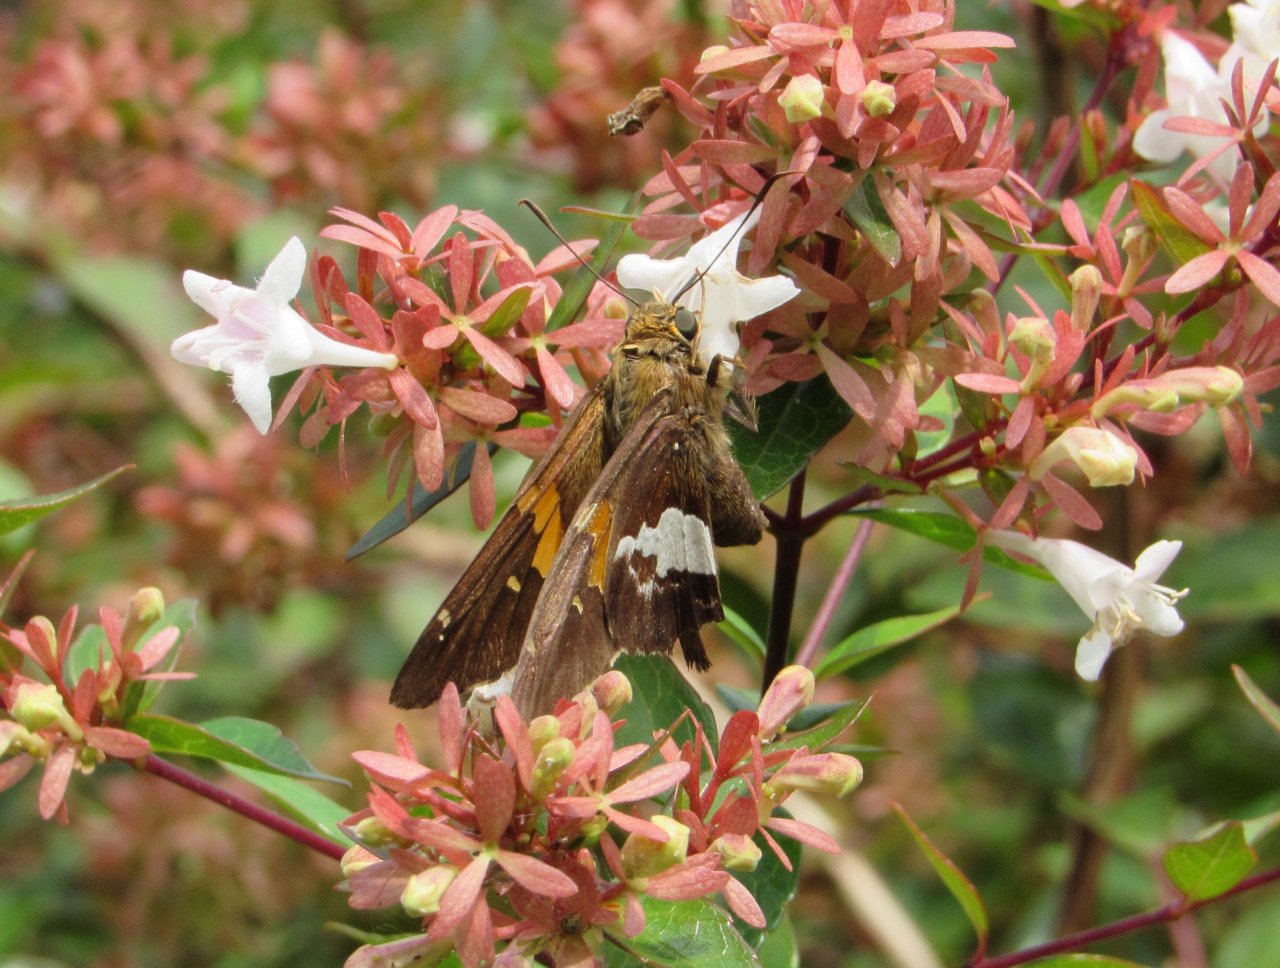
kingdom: Animalia
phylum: Arthropoda
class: Insecta
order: Lepidoptera
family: Hesperiidae
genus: Epargyreus
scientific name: Epargyreus clarus
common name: Silver-spotted Skipper
